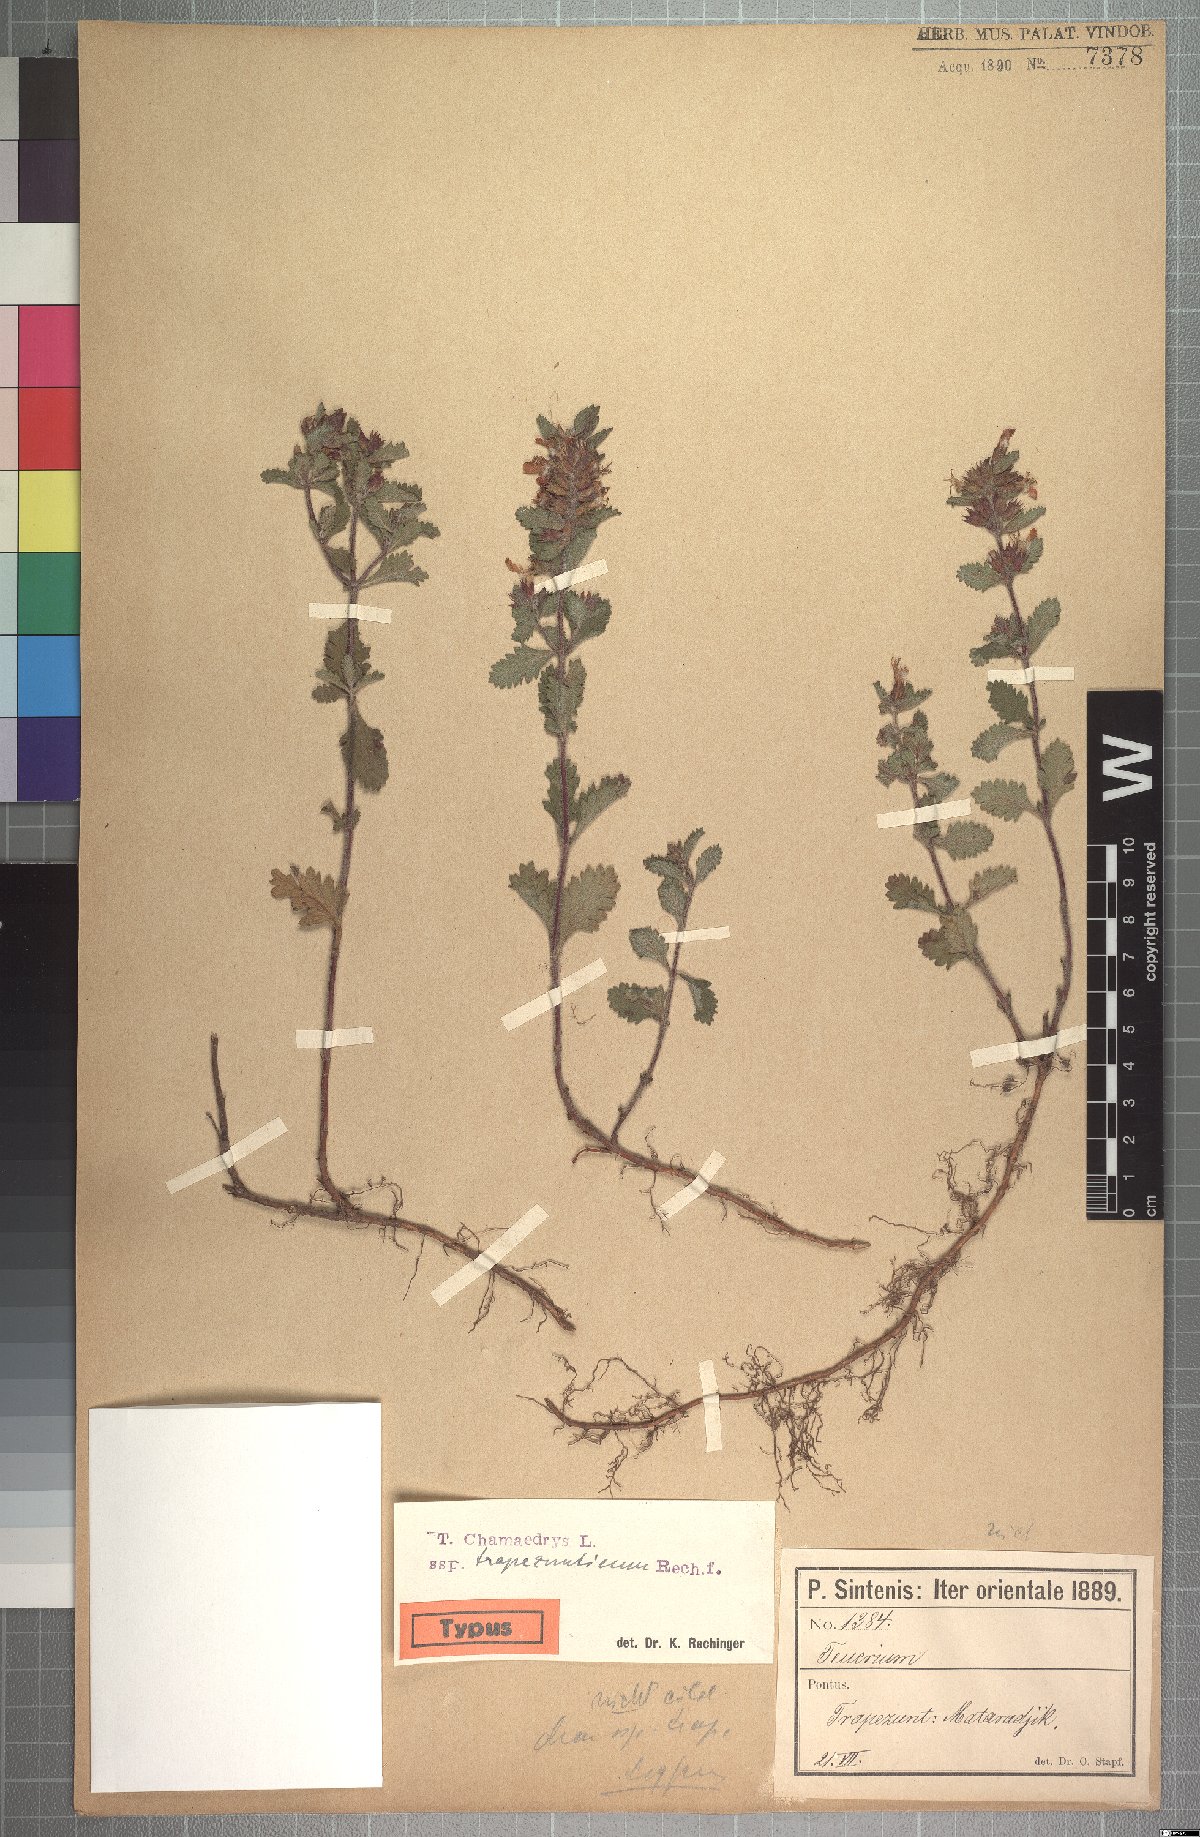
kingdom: Plantae
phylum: Tracheophyta
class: Magnoliopsida
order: Lamiales
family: Lamiaceae
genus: Teucrium
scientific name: Teucrium chamaedrys
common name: Wall germander
